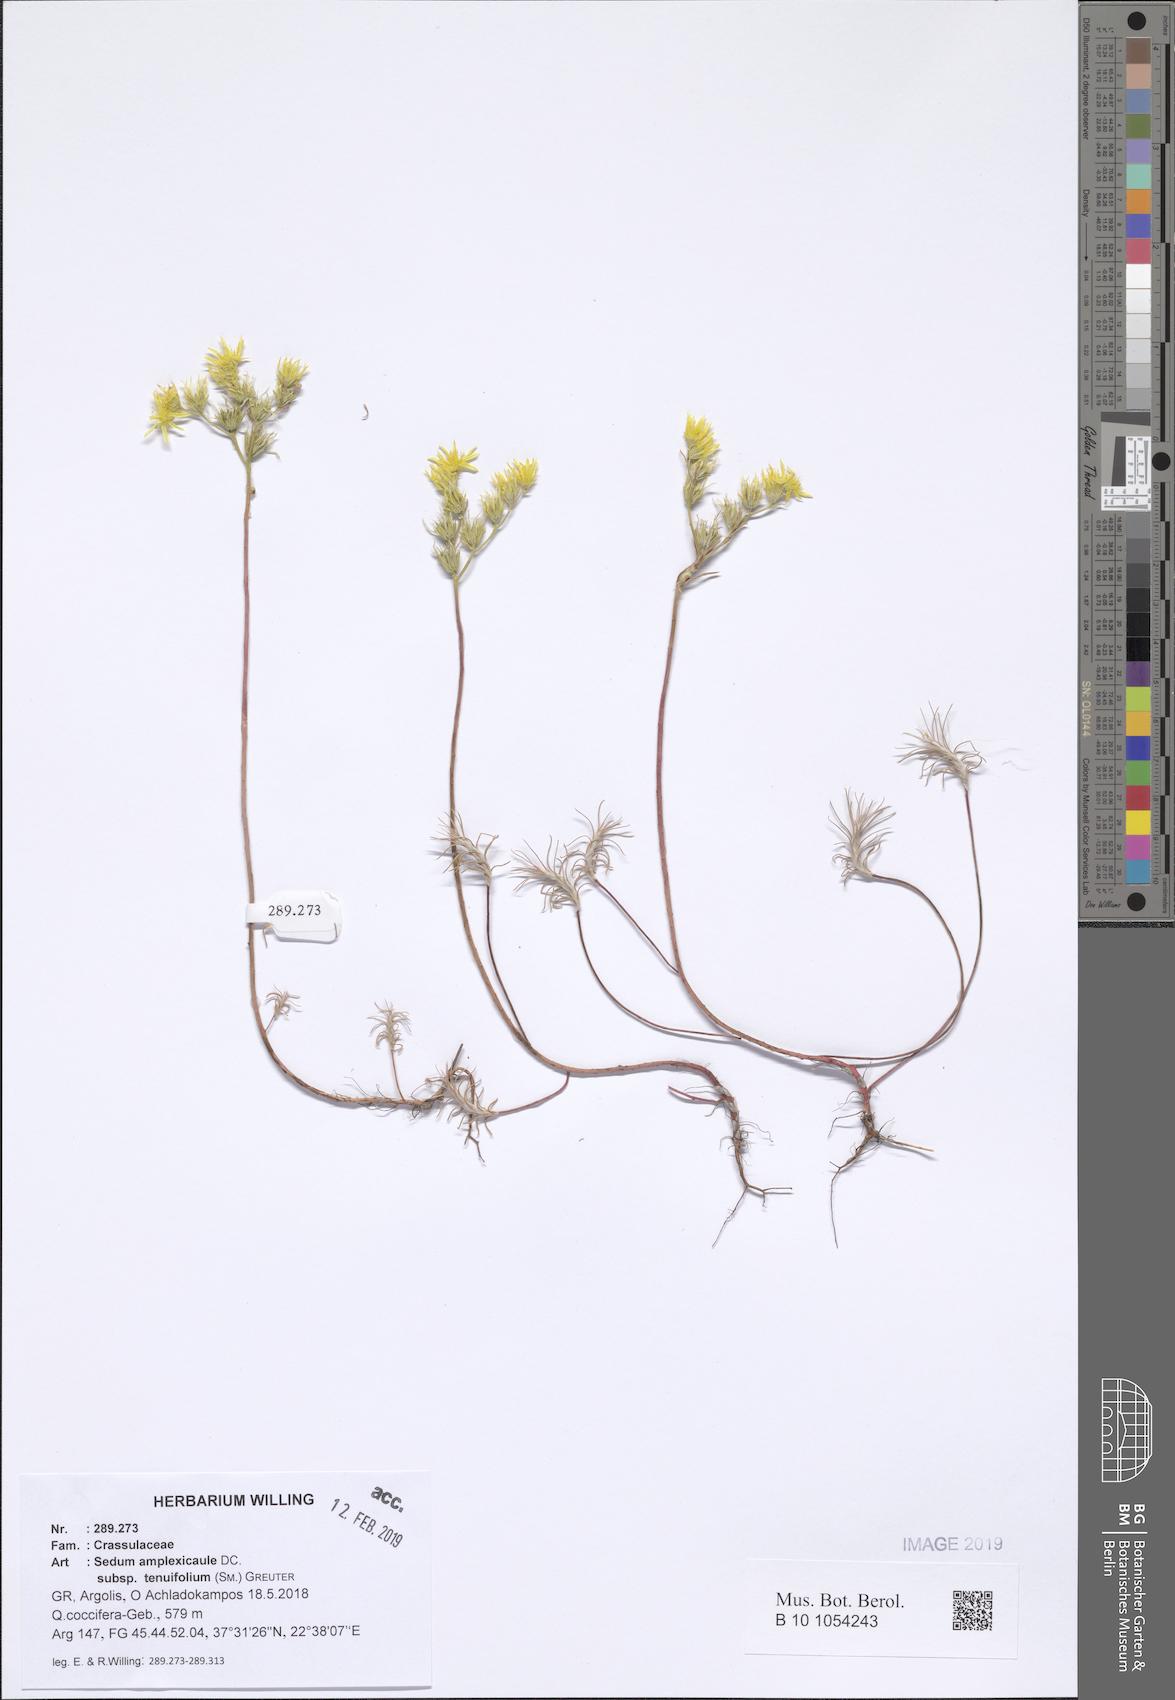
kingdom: Plantae
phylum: Tracheophyta
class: Magnoliopsida
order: Saxifragales
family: Crassulaceae
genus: Petrosedum
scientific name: Petrosedum tenuifolium
